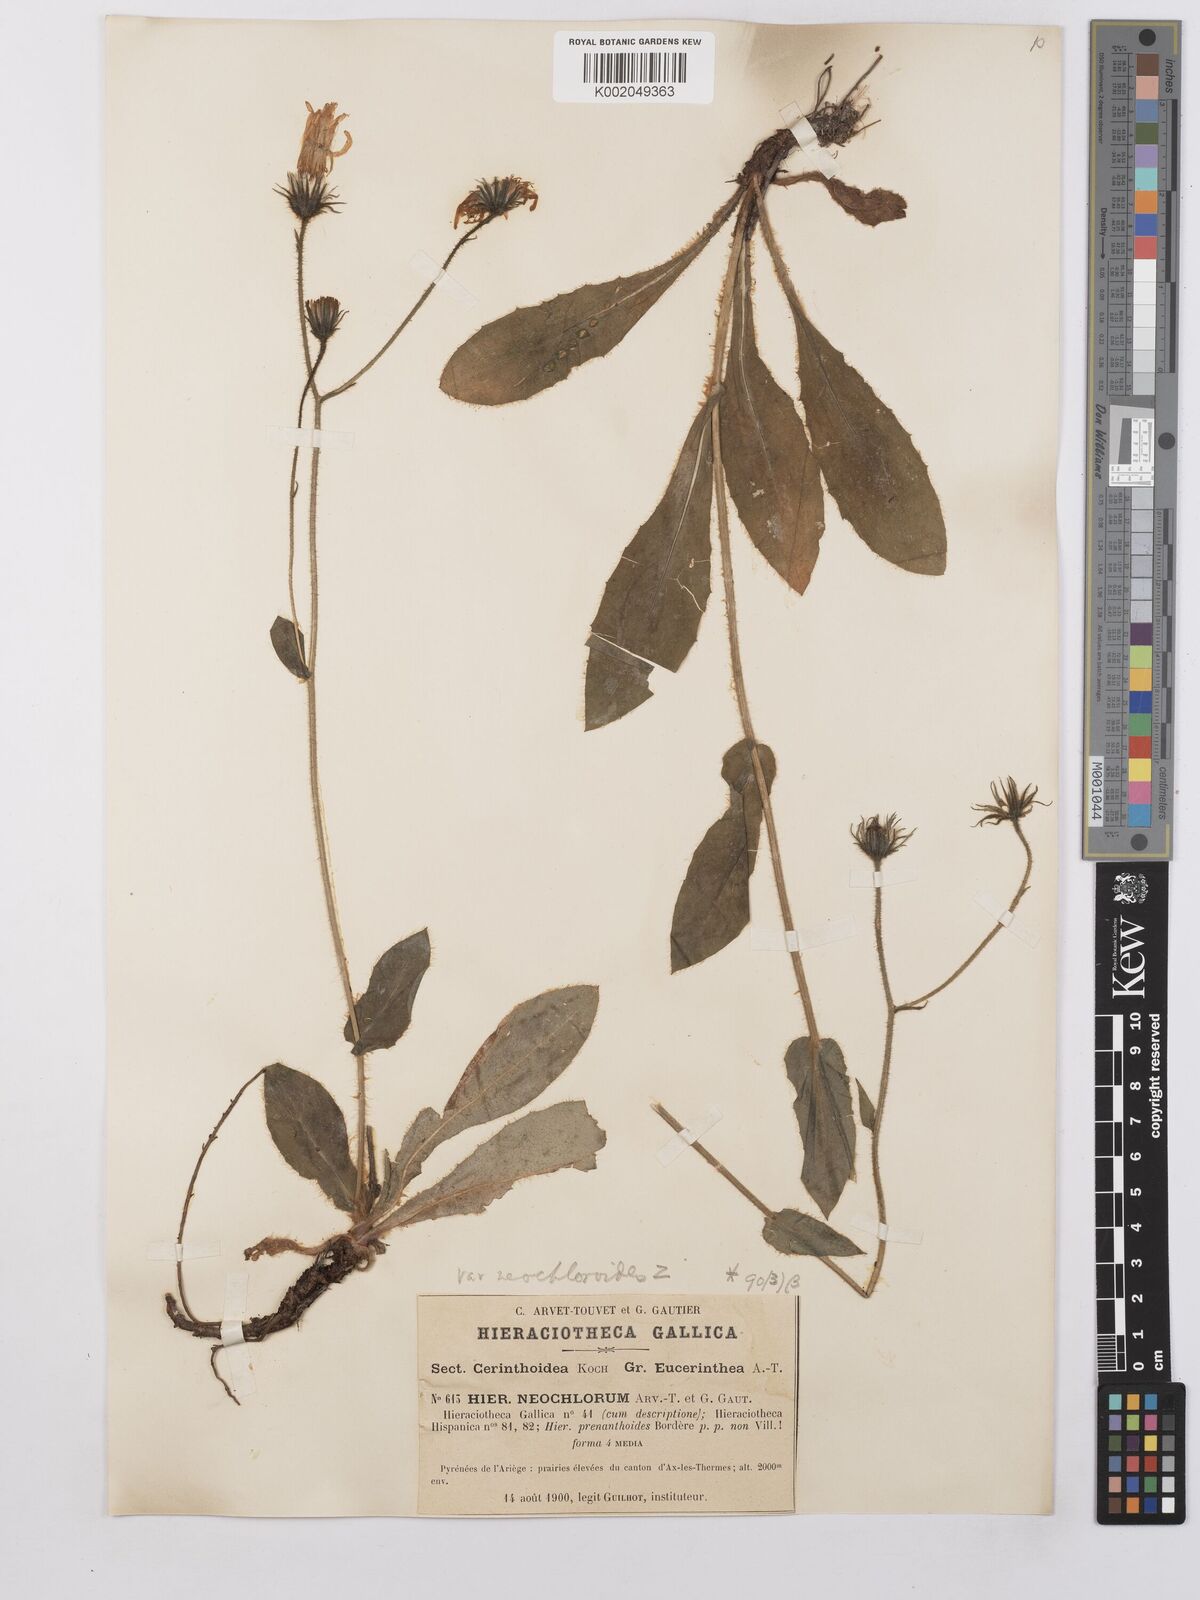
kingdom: Plantae
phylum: Tracheophyta
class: Magnoliopsida
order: Asterales
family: Asteraceae
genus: Hieracium
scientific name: Hieracium cerinthoides
